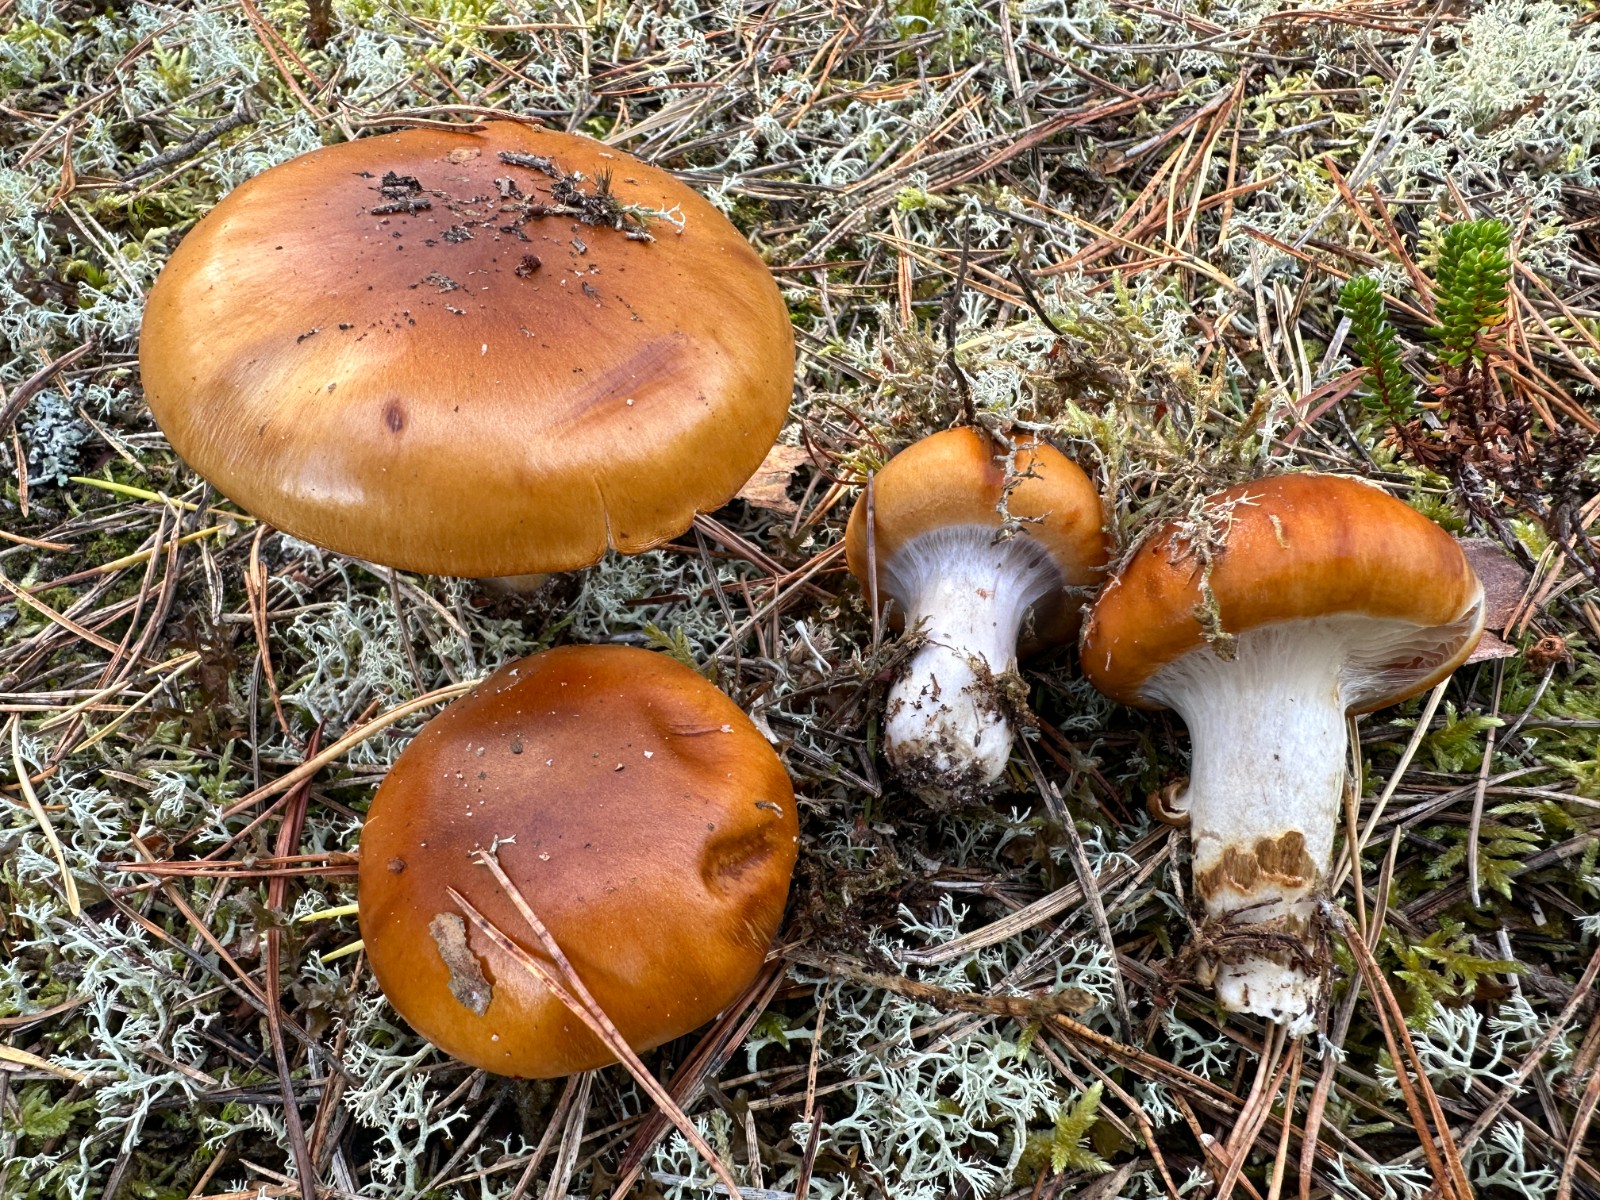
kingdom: Fungi
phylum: Basidiomycota
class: Agaricomycetes
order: Agaricales
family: Cortinariaceae
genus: Cortinarius
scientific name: Cortinarius mucosus
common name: kastaniebrun slørhat
